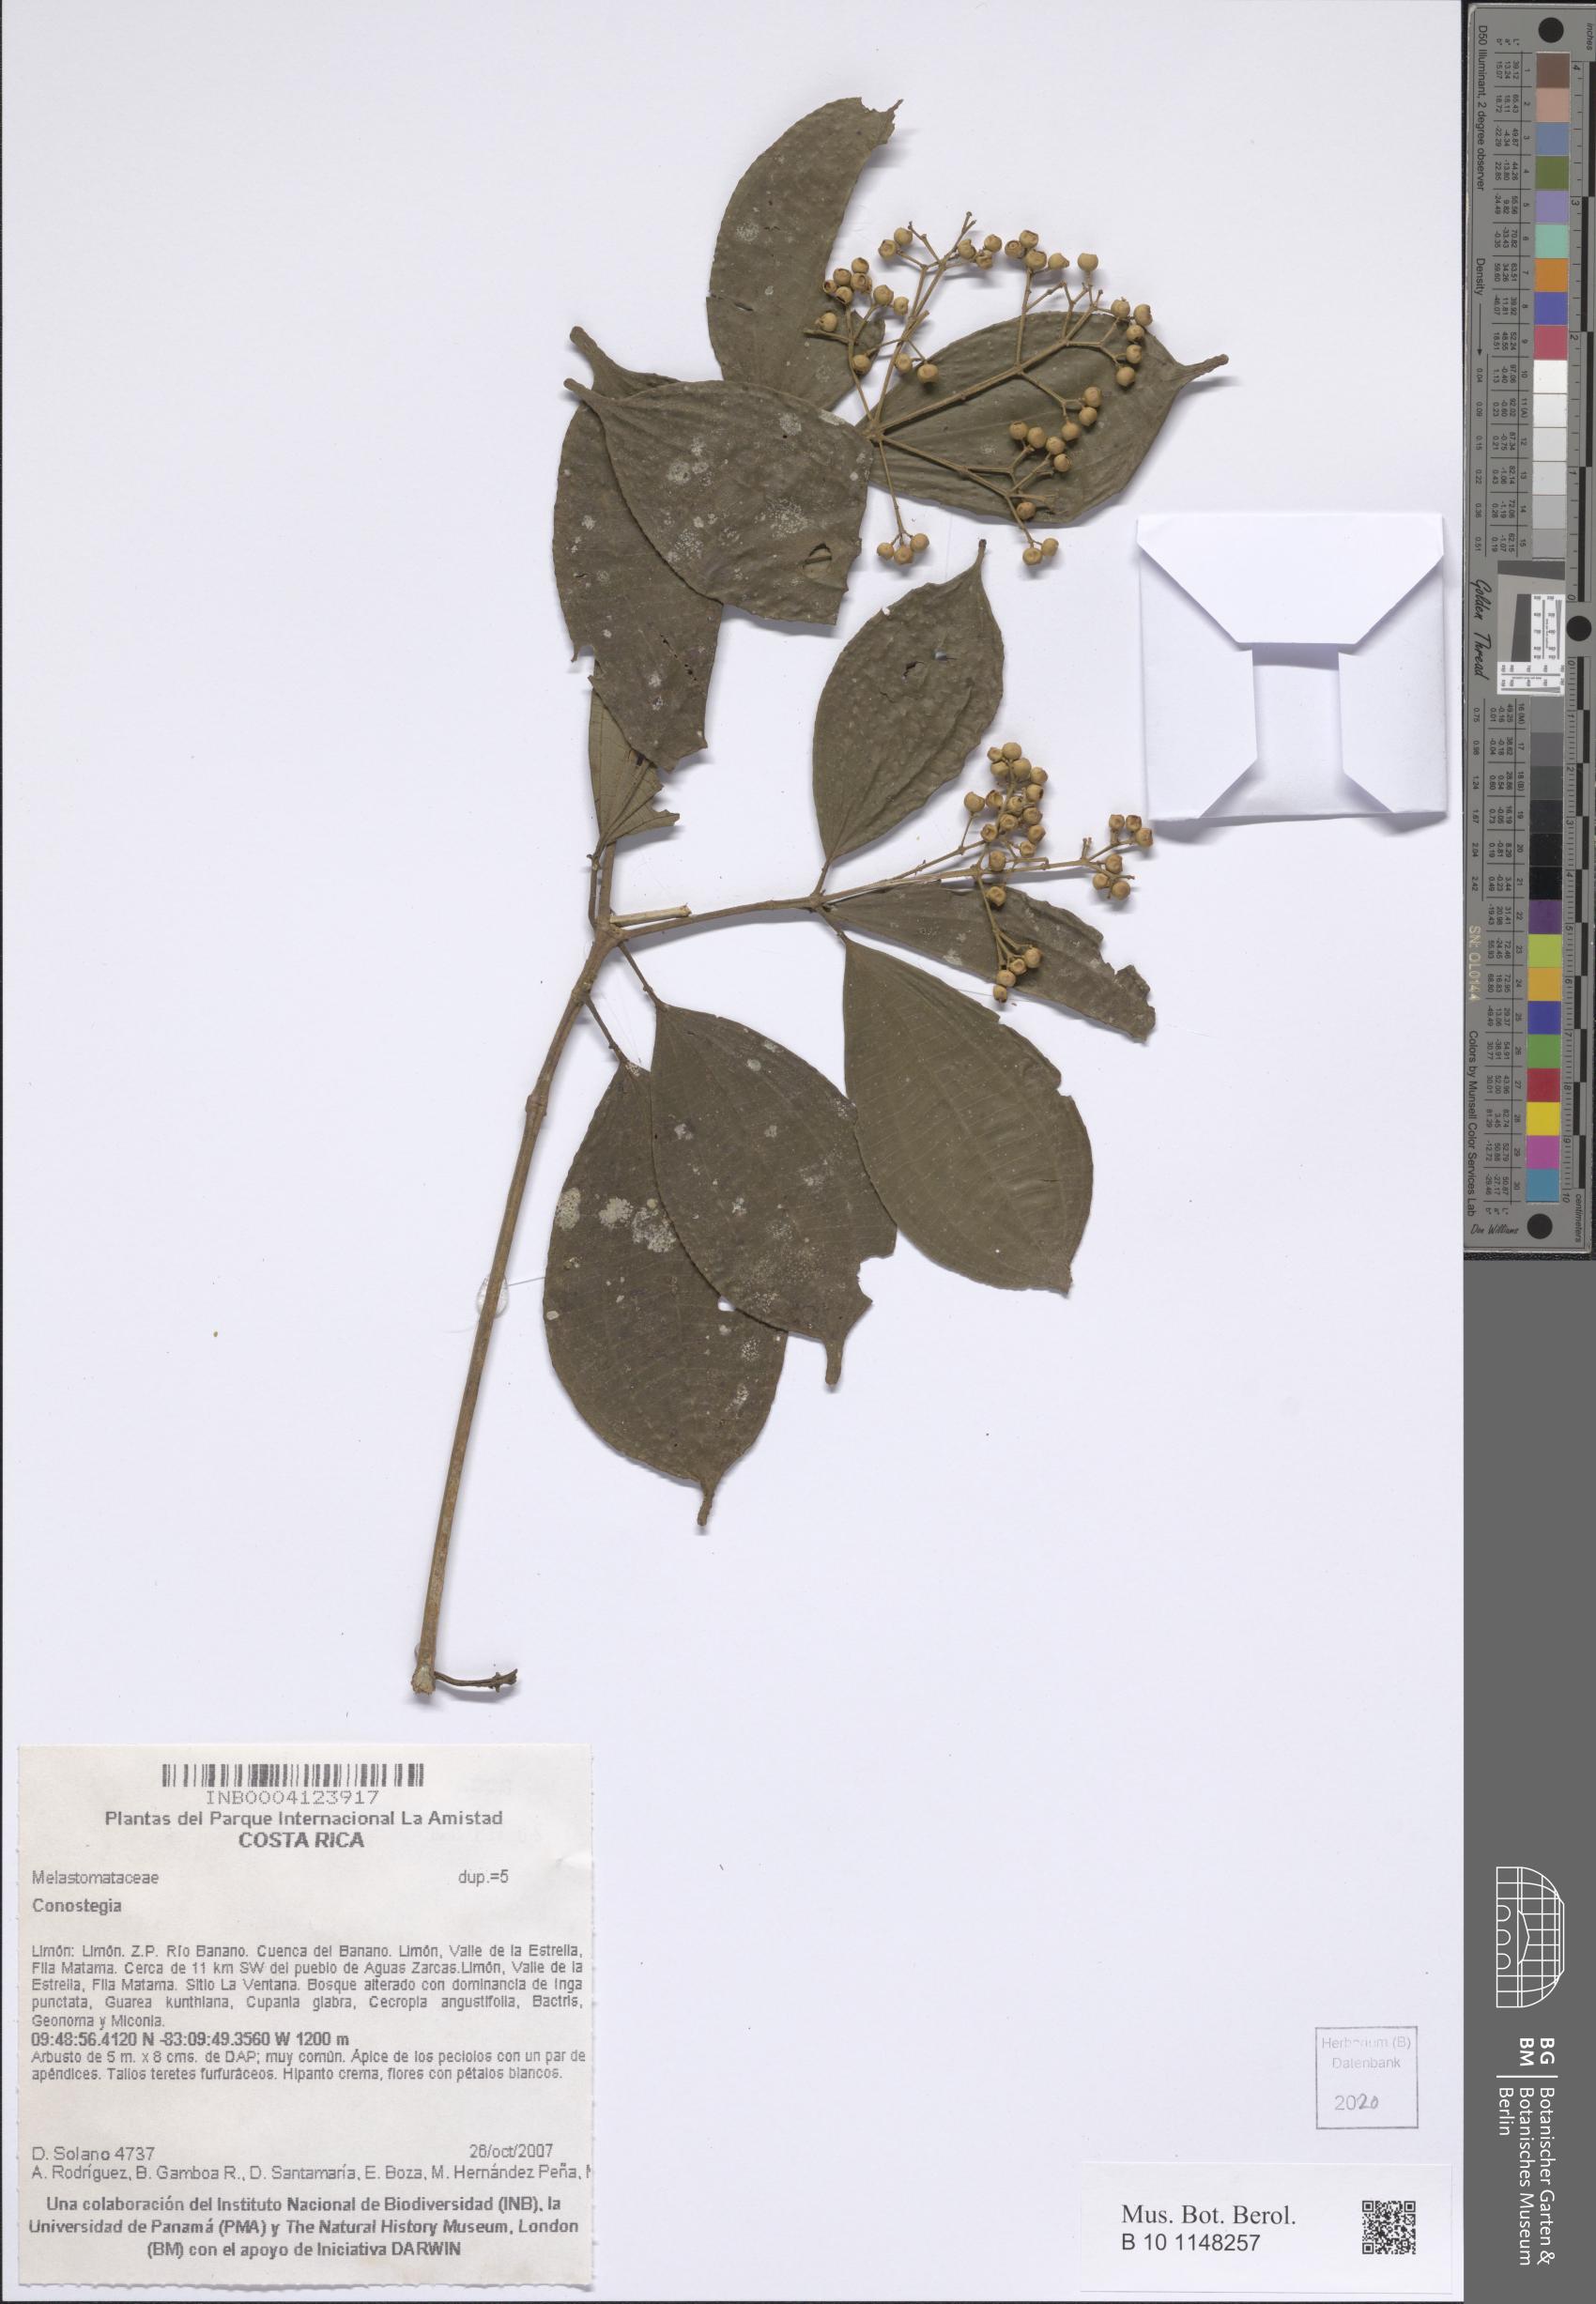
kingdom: Plantae
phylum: Tracheophyta
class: Magnoliopsida
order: Myrtales
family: Melastomataceae
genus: Miconia
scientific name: Miconia
